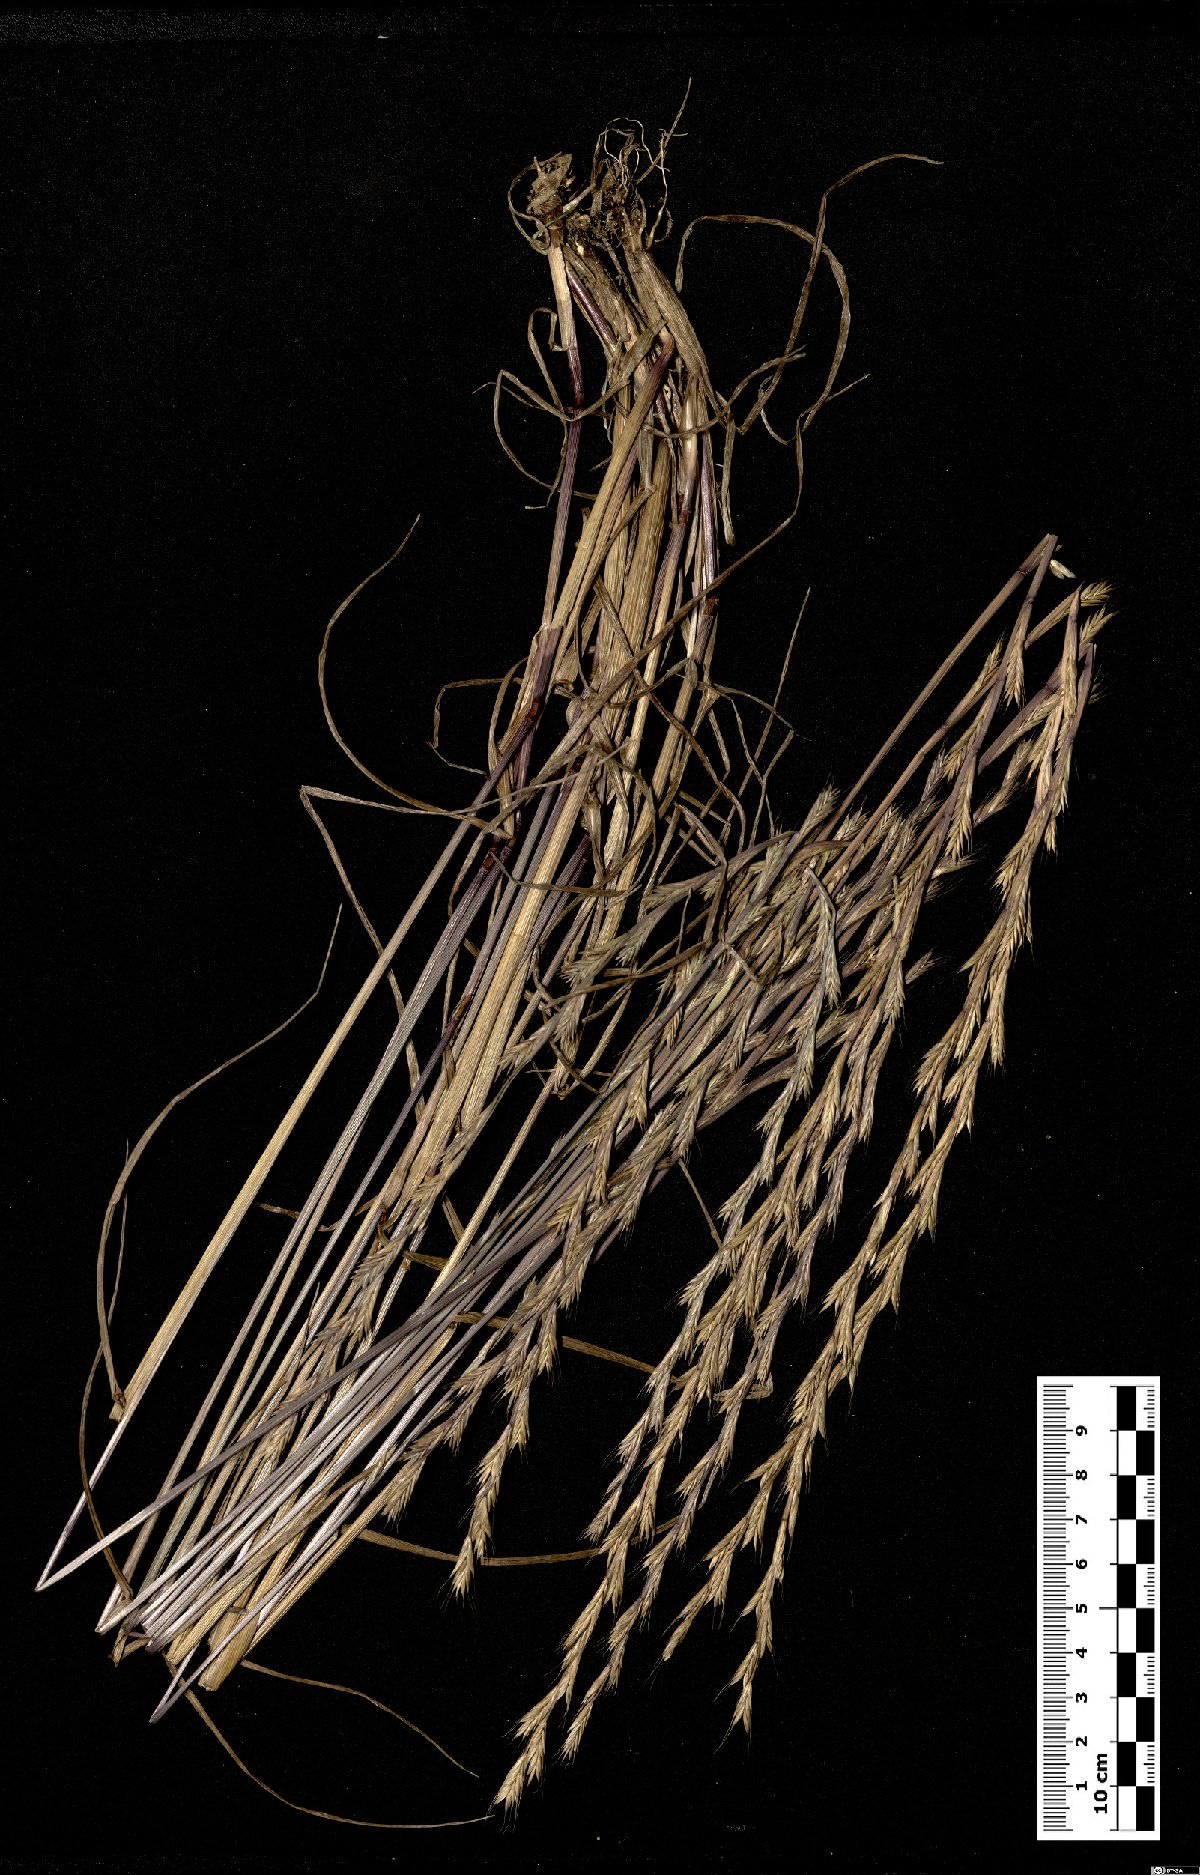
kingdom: Plantae
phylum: Tracheophyta
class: Liliopsida
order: Poales
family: Poaceae
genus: Lolium
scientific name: Lolium rigidum
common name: Wimmera ryegrass
